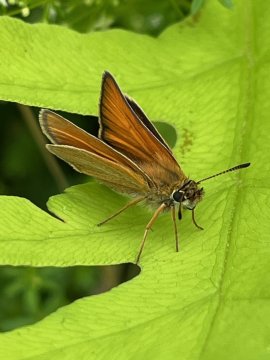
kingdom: Animalia
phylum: Arthropoda
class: Insecta
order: Lepidoptera
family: Hesperiidae
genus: Thymelicus
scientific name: Thymelicus lineola
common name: European Skipper
